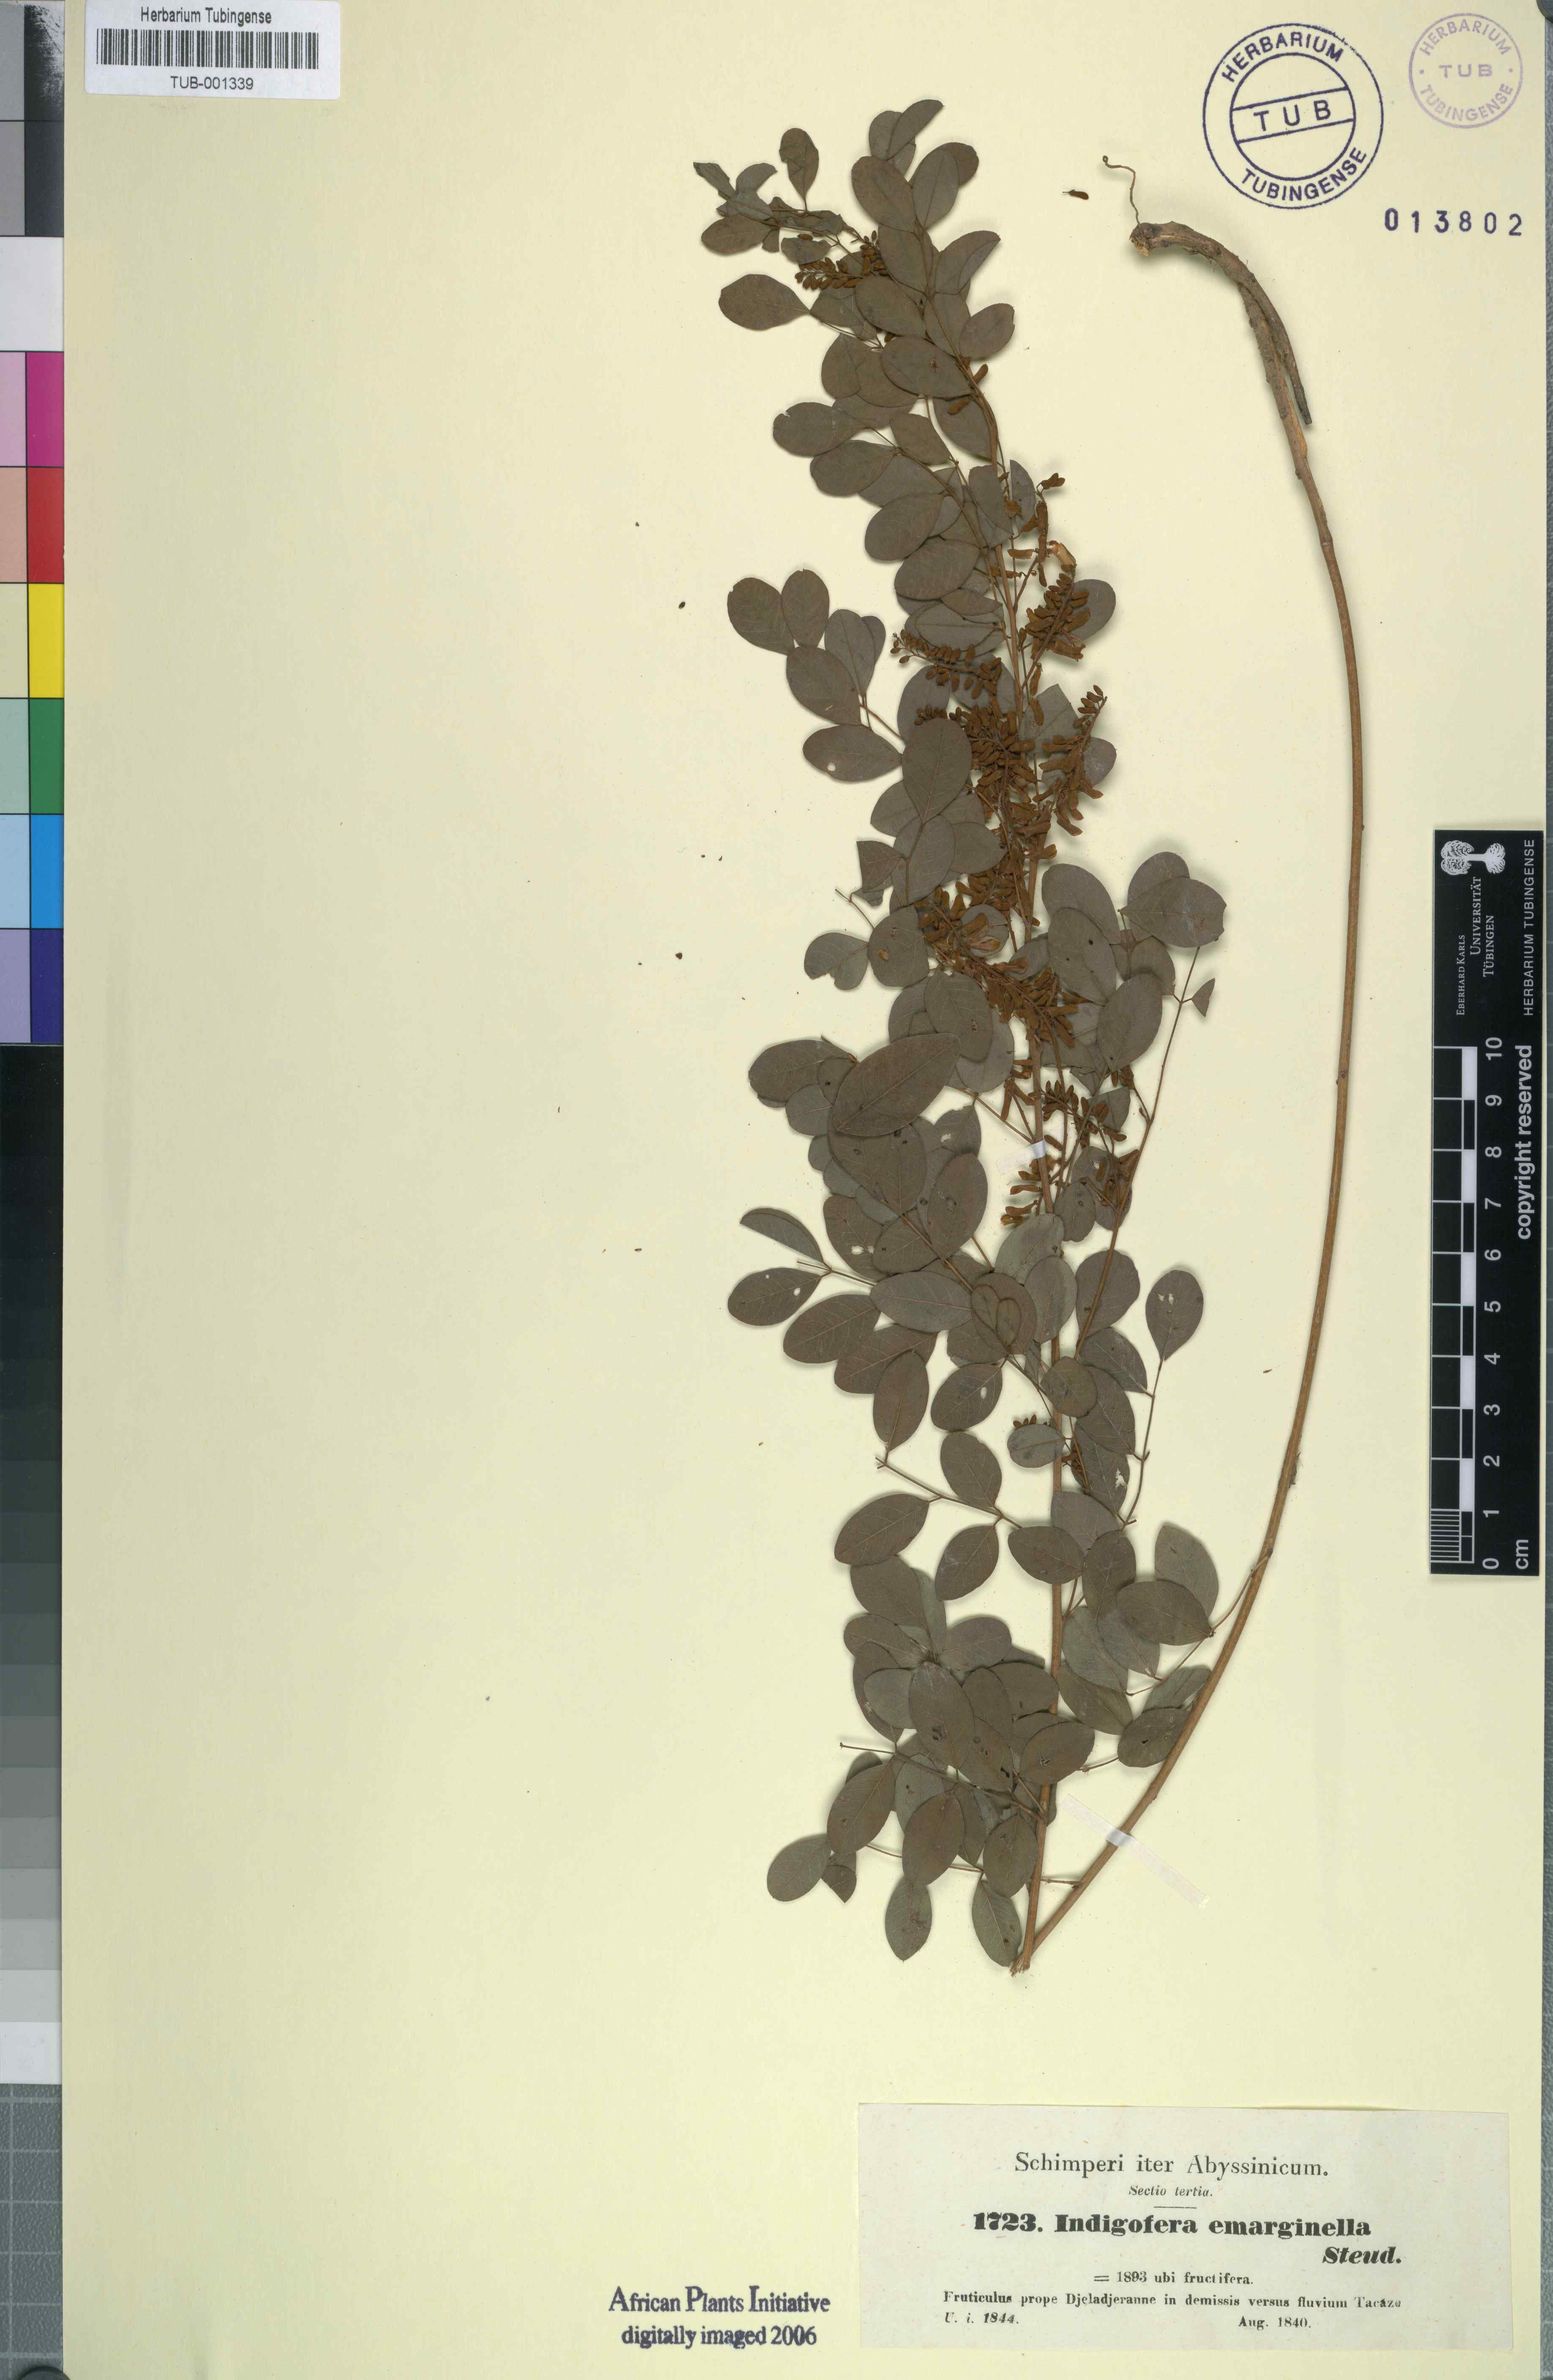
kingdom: Plantae
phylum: Tracheophyta
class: Magnoliopsida
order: Fabales
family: Fabaceae
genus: Indigofera
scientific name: Indigofera emarginella
